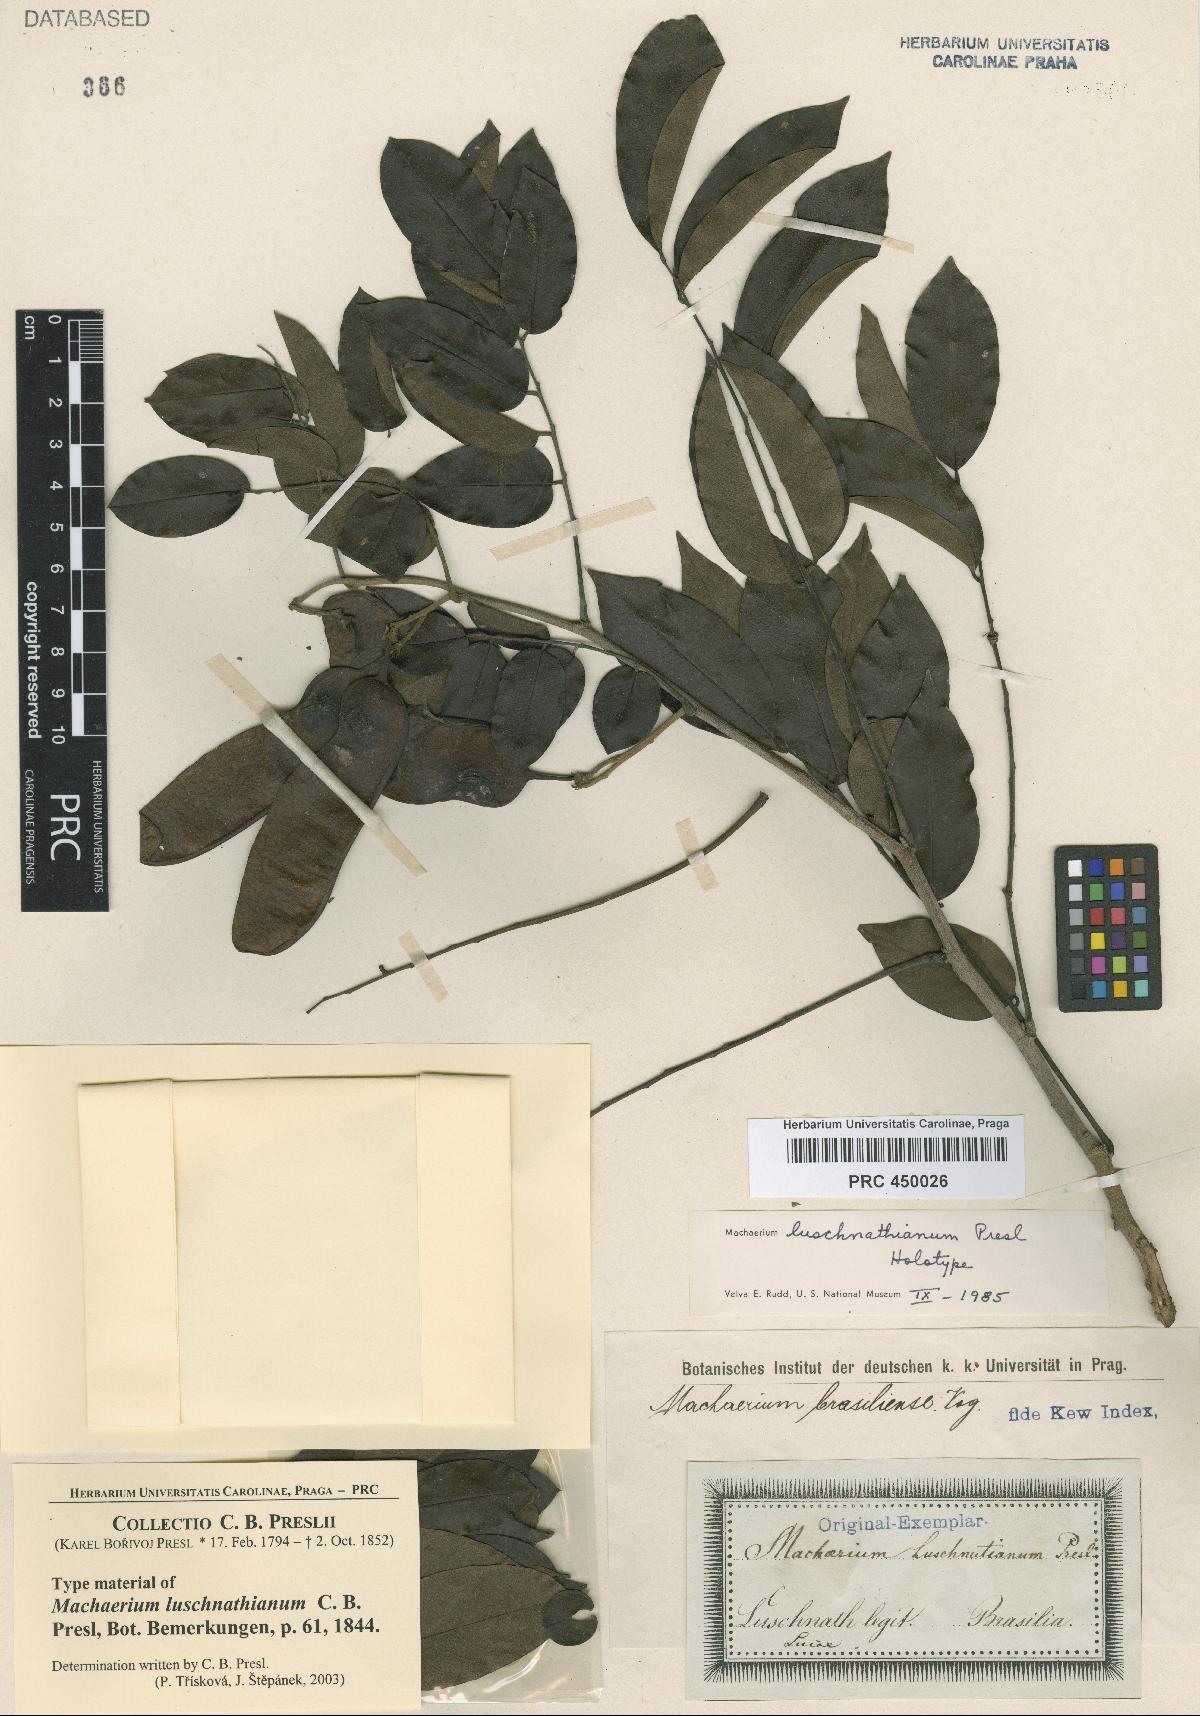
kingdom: Plantae
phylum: Tracheophyta
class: Magnoliopsida
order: Fabales
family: Fabaceae
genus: Machaerium
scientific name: Machaerium brasiliense
